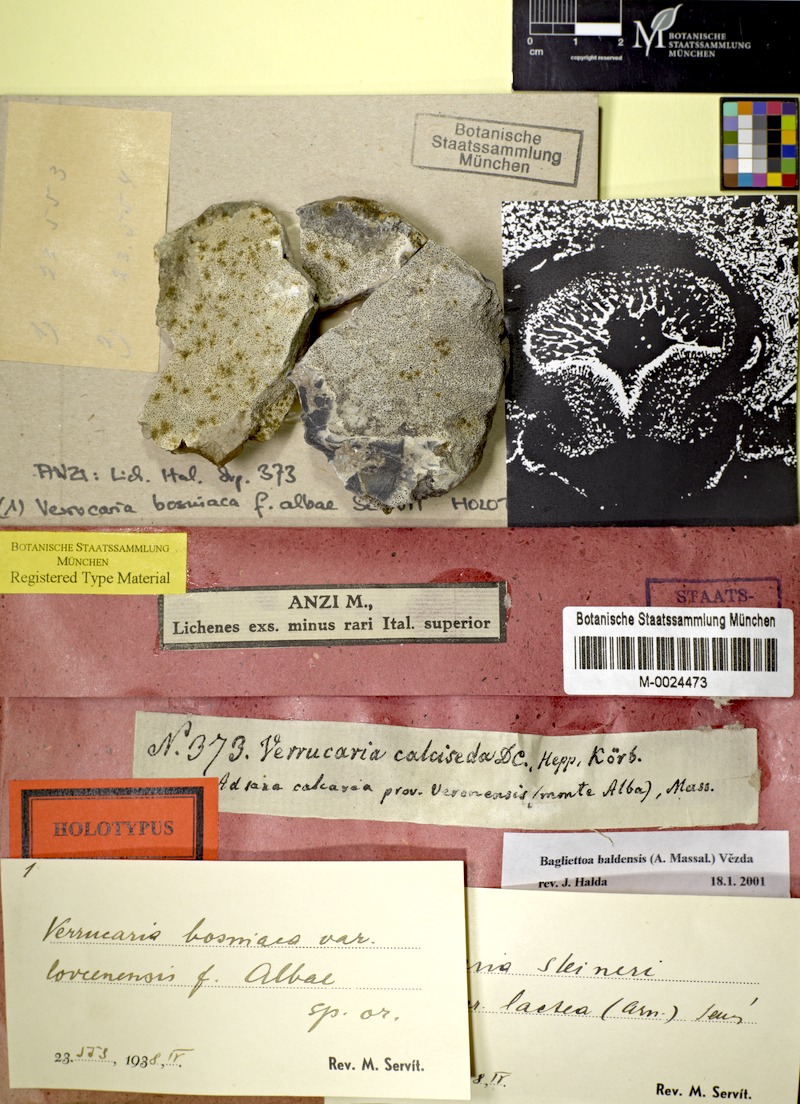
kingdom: Fungi
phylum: Ascomycota
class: Eurotiomycetes
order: Verrucariales
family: Verrucariaceae
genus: Bagliettoa
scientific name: Bagliettoa baldensis
